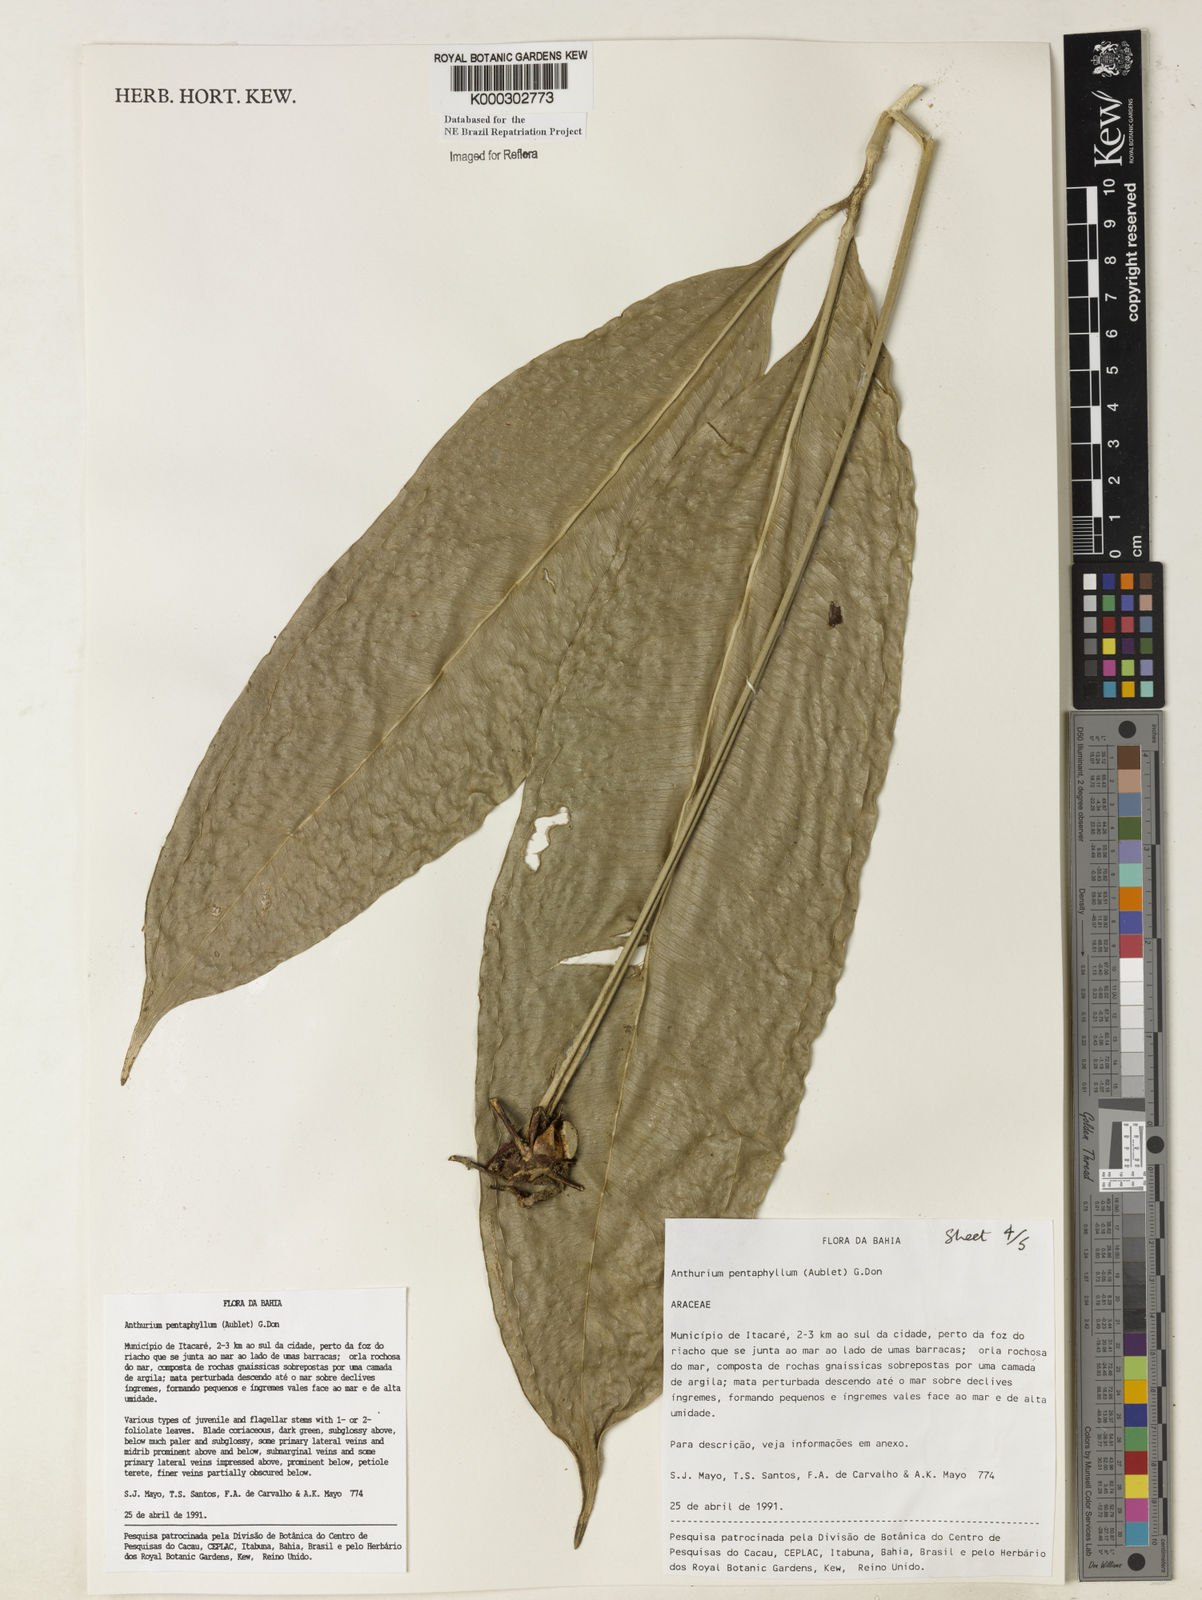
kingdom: Plantae
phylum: Tracheophyta
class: Liliopsida
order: Alismatales
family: Araceae
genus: Anthurium
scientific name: Anthurium pentaphyllum
